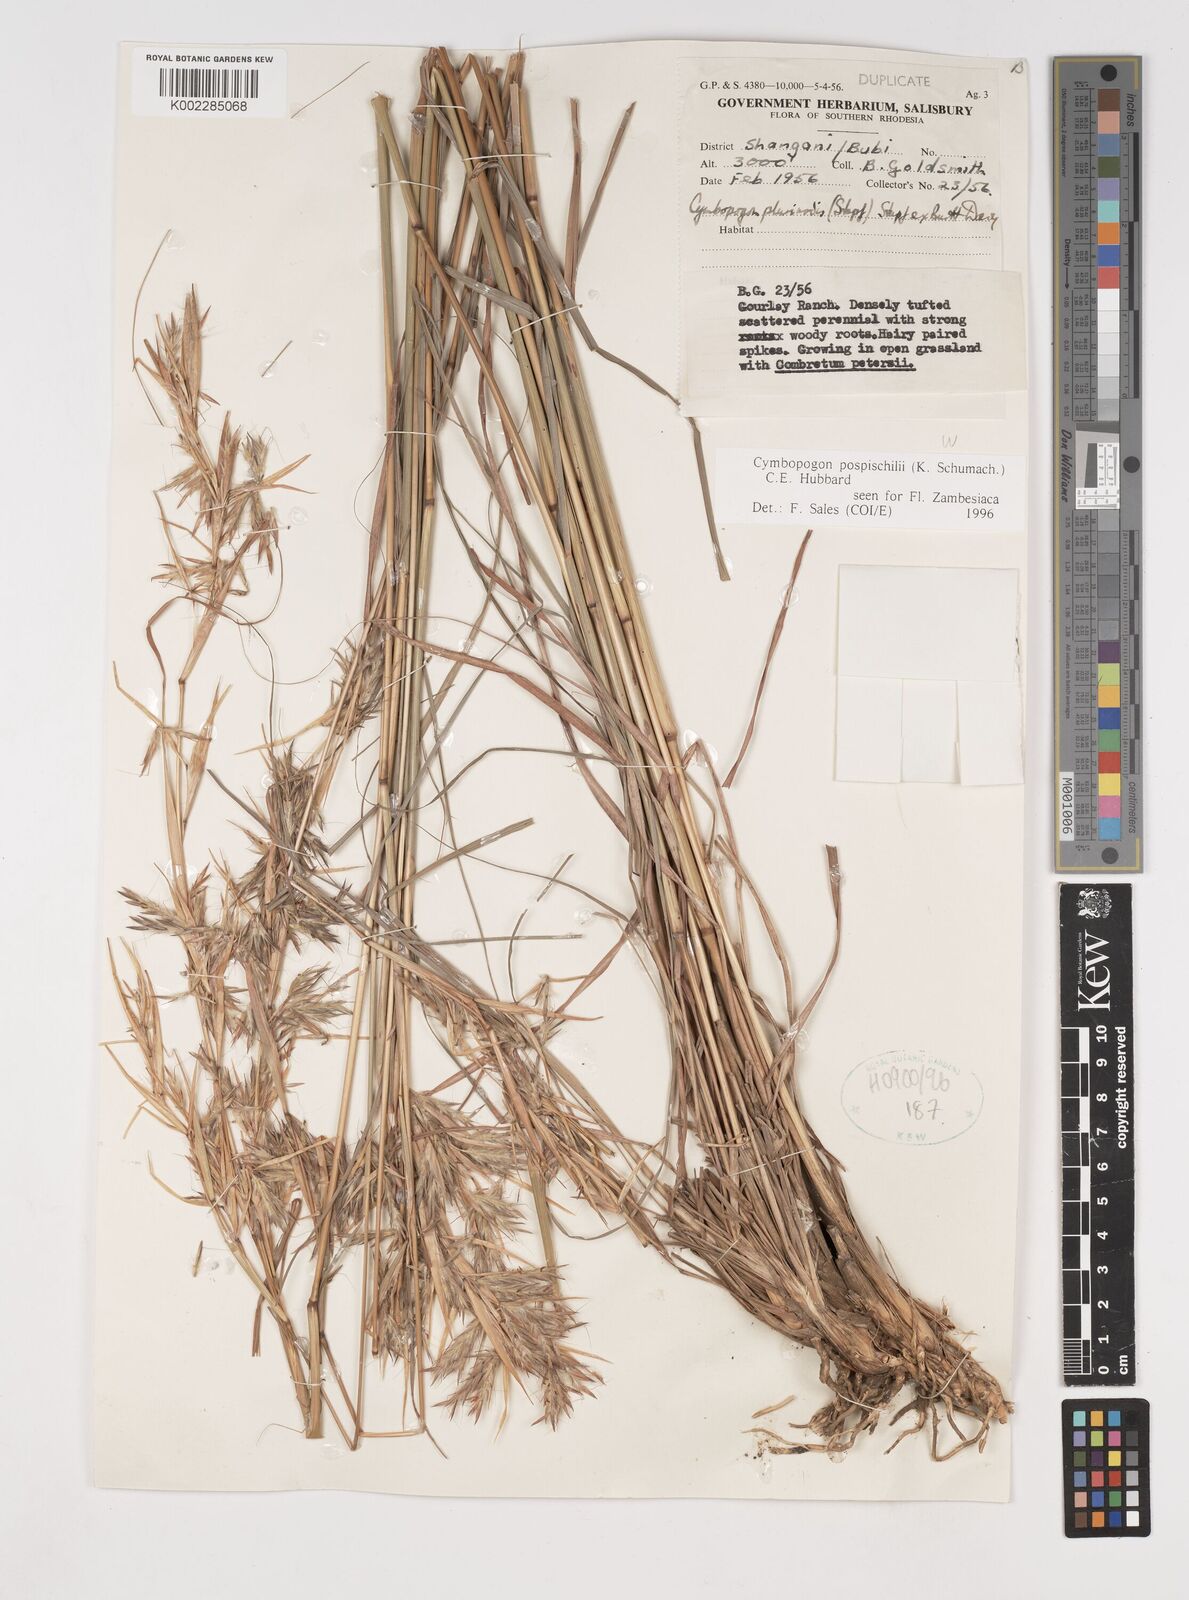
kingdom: Plantae
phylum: Tracheophyta
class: Liliopsida
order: Poales
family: Poaceae
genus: Cymbopogon
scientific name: Cymbopogon pospischilii
